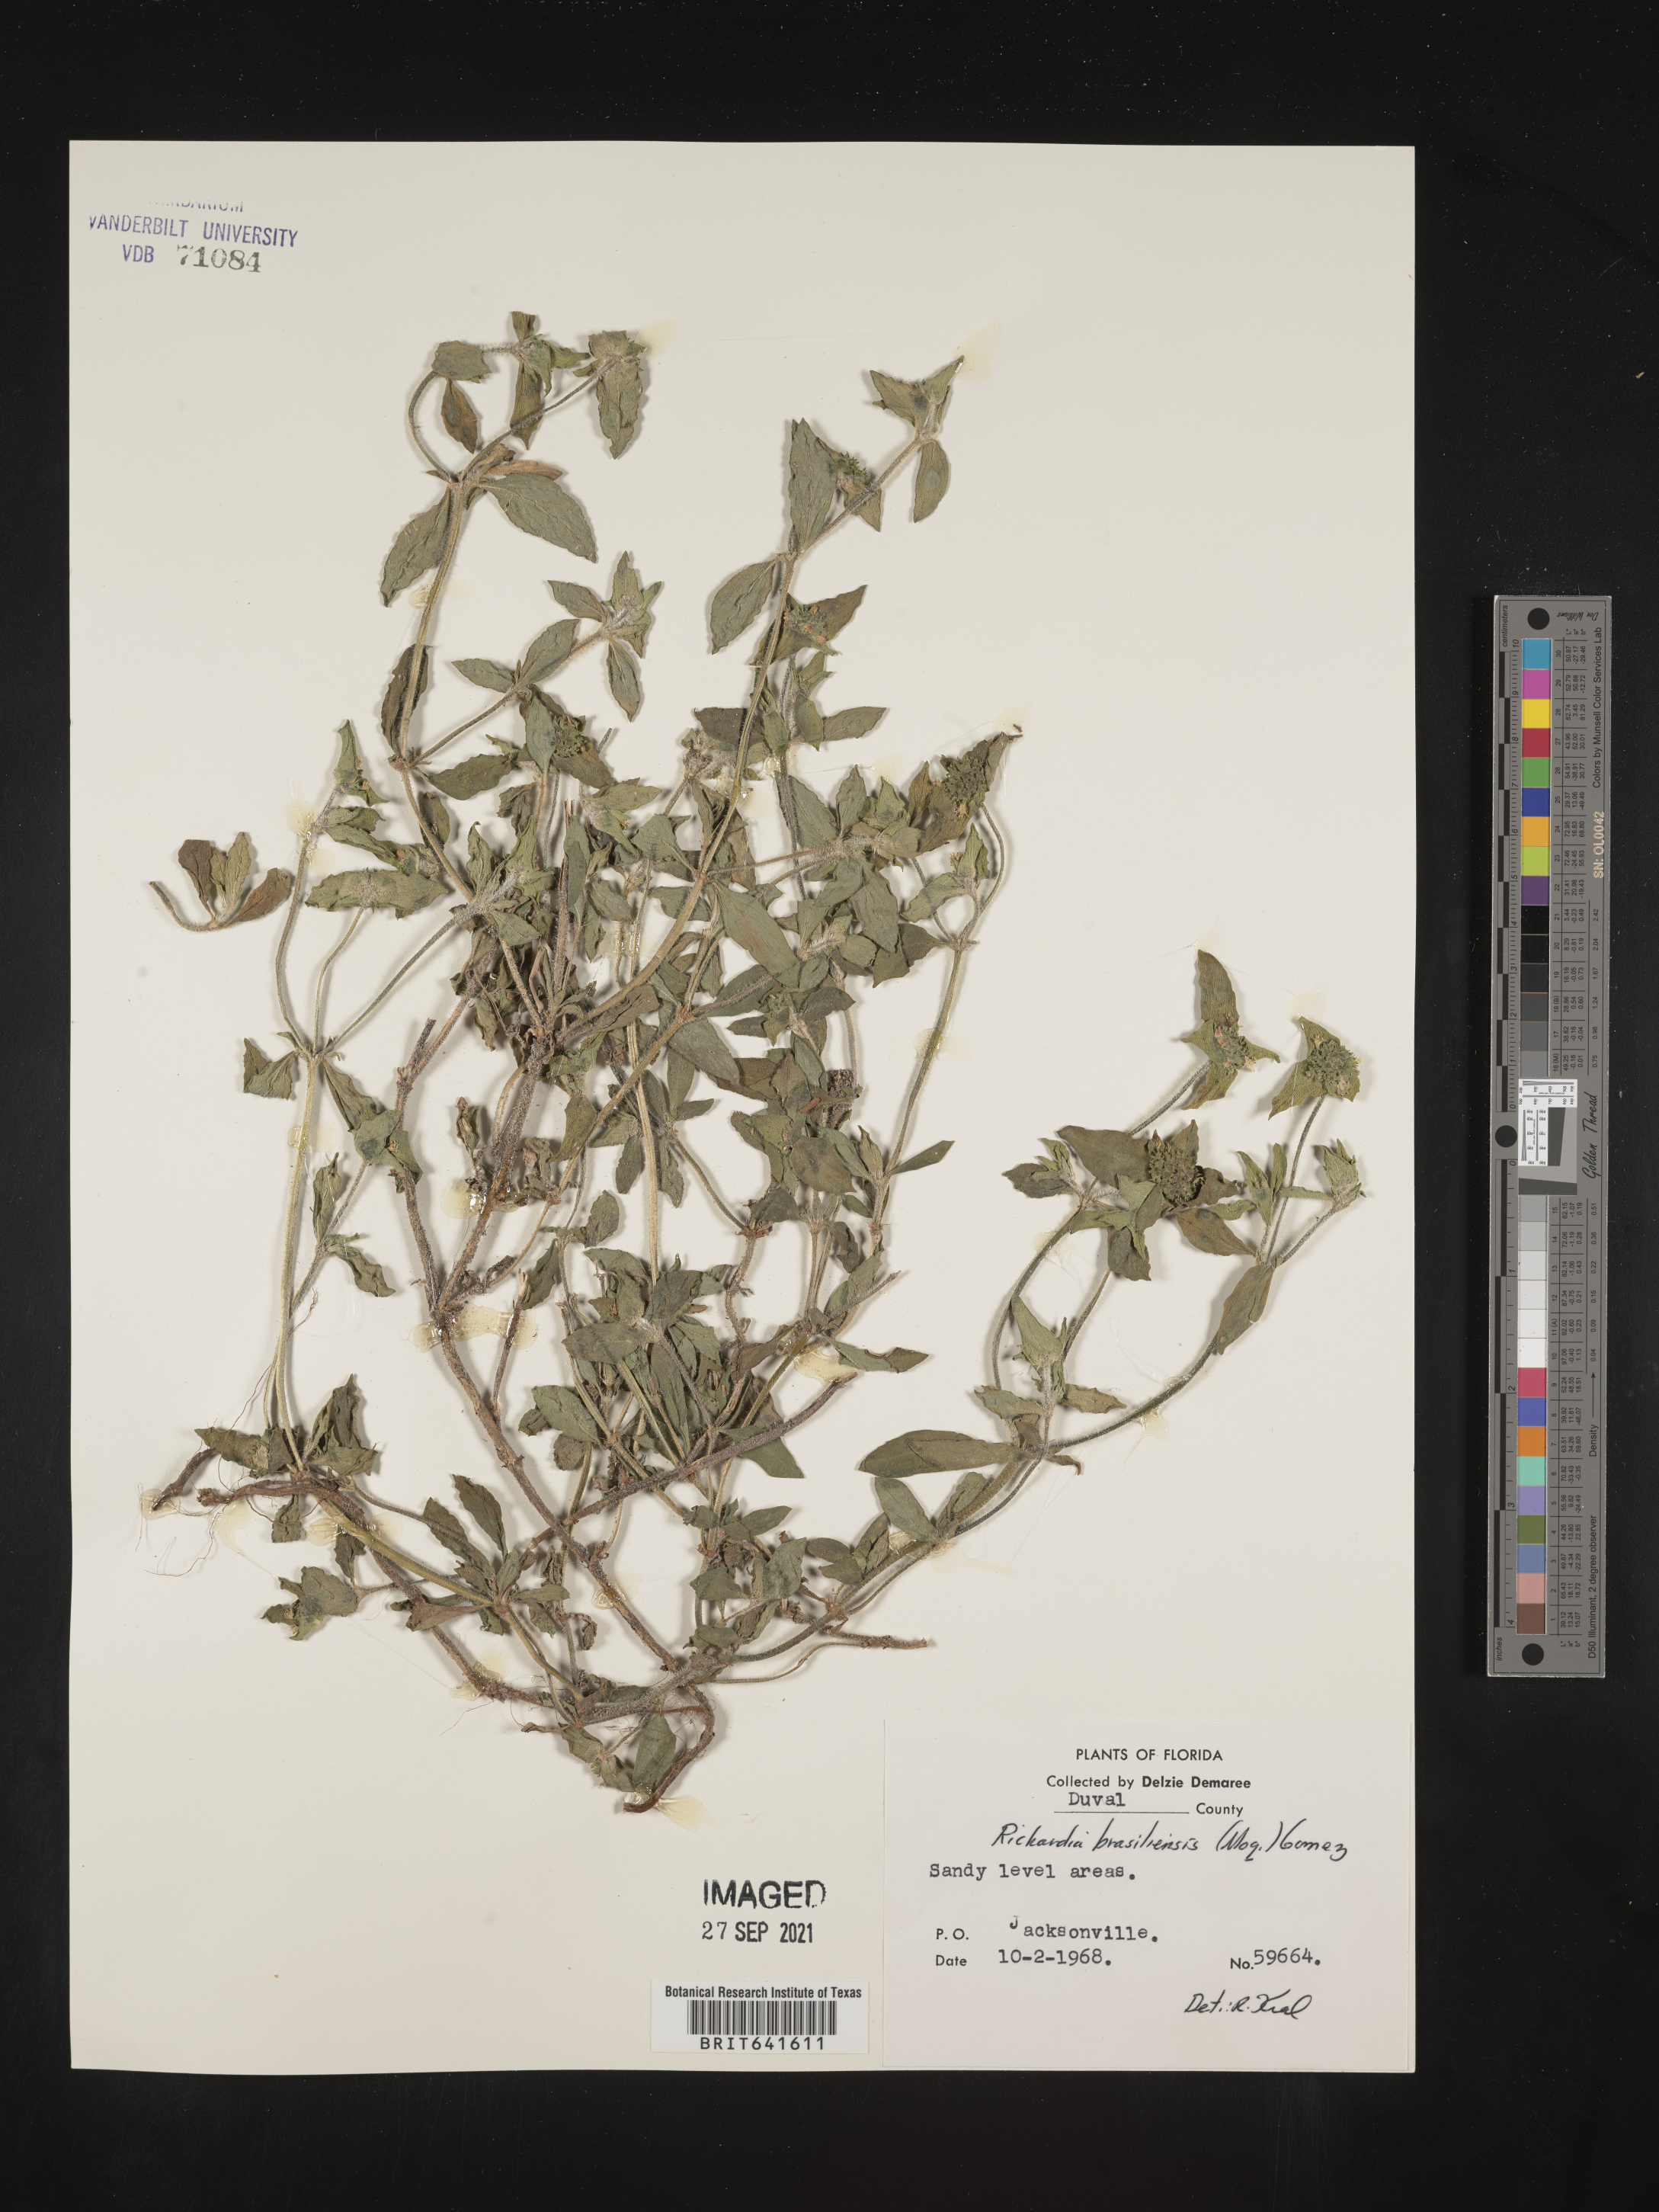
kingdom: Plantae
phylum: Tracheophyta
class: Magnoliopsida
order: Gentianales
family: Rubiaceae
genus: Richardia
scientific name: Richardia brasiliensis
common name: Tropical mexican clover
